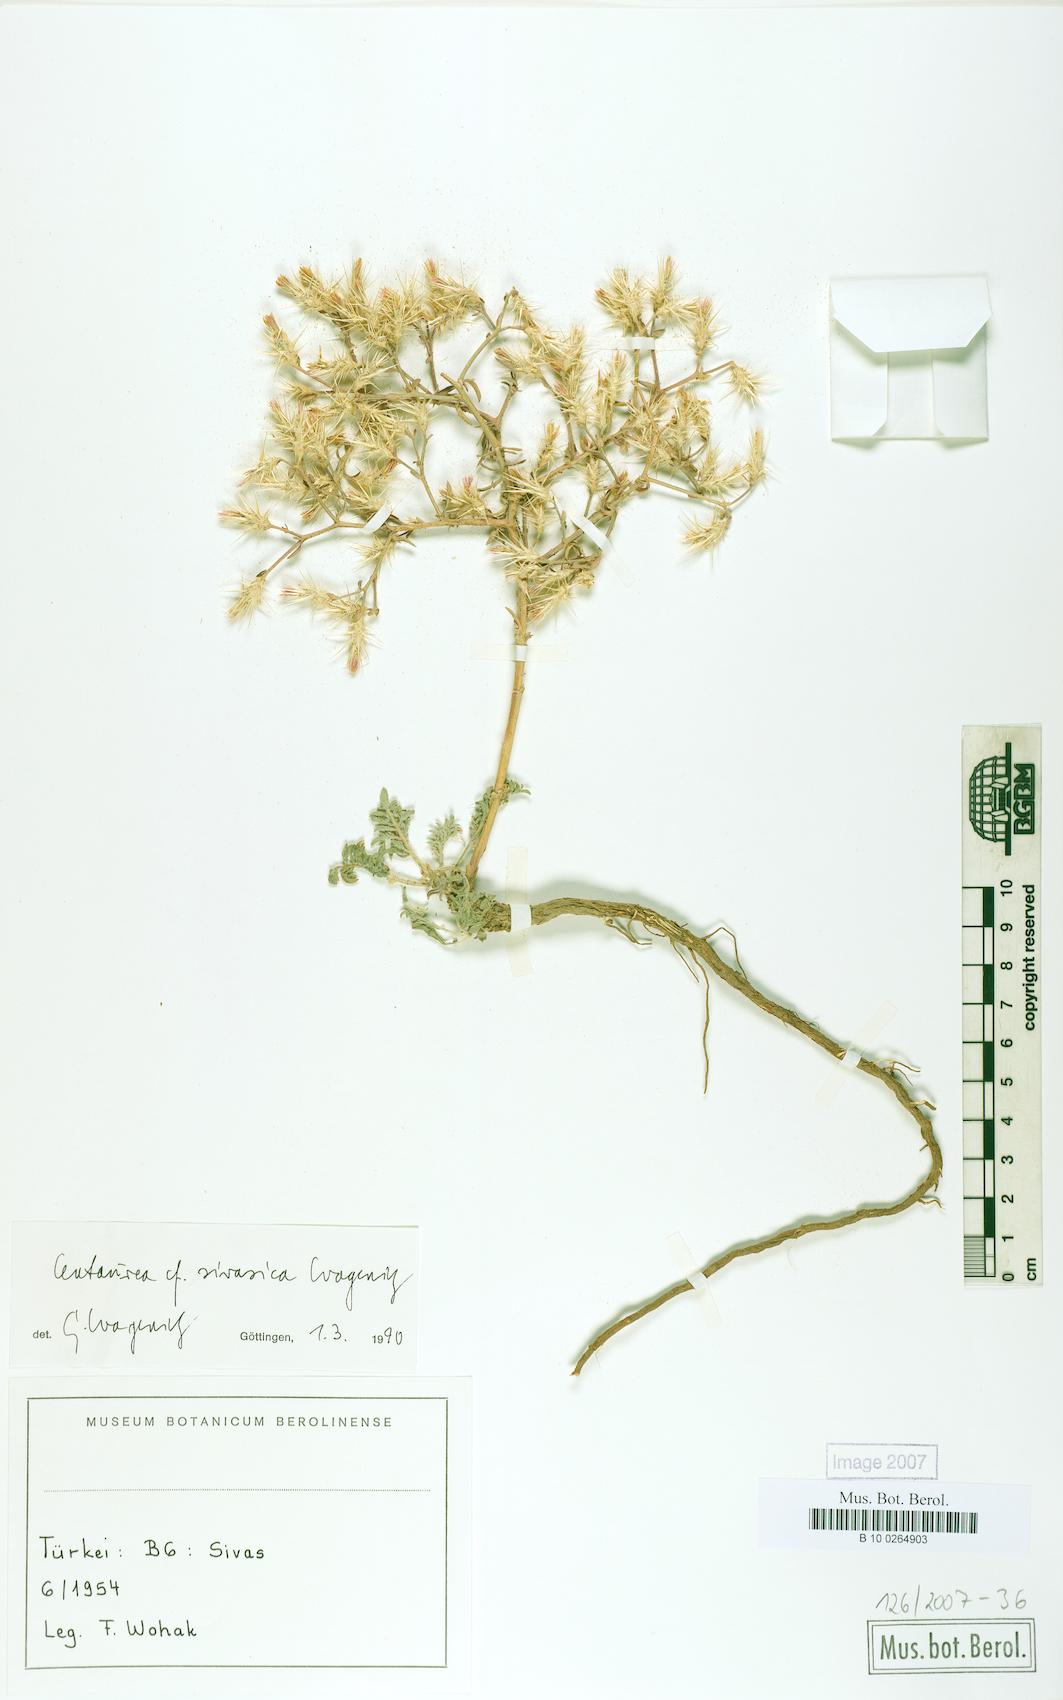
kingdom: Plantae
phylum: Tracheophyta
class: Magnoliopsida
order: Asterales
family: Asteraceae
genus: Centaurea
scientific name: Centaurea sivasica
